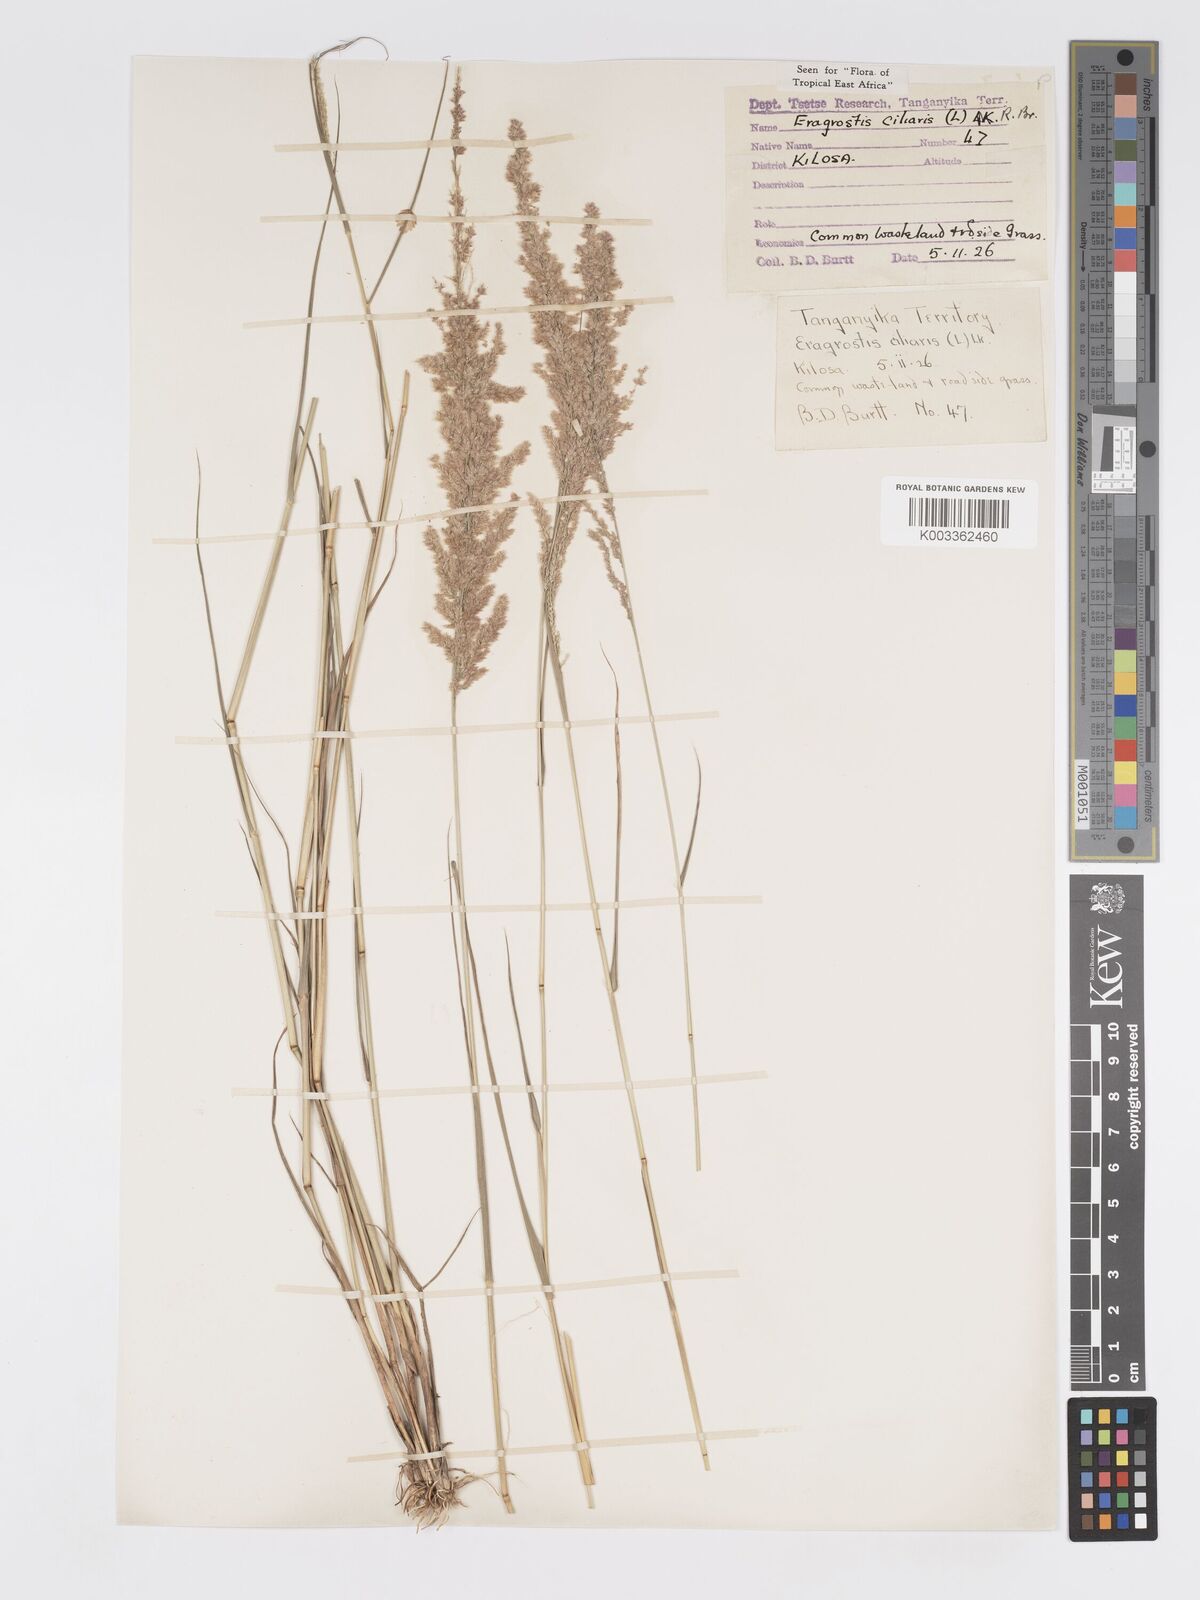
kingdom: Plantae
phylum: Tracheophyta
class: Liliopsida
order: Poales
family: Poaceae
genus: Eragrostis
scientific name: Eragrostis ciliaris
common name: Gophertail lovegrass
